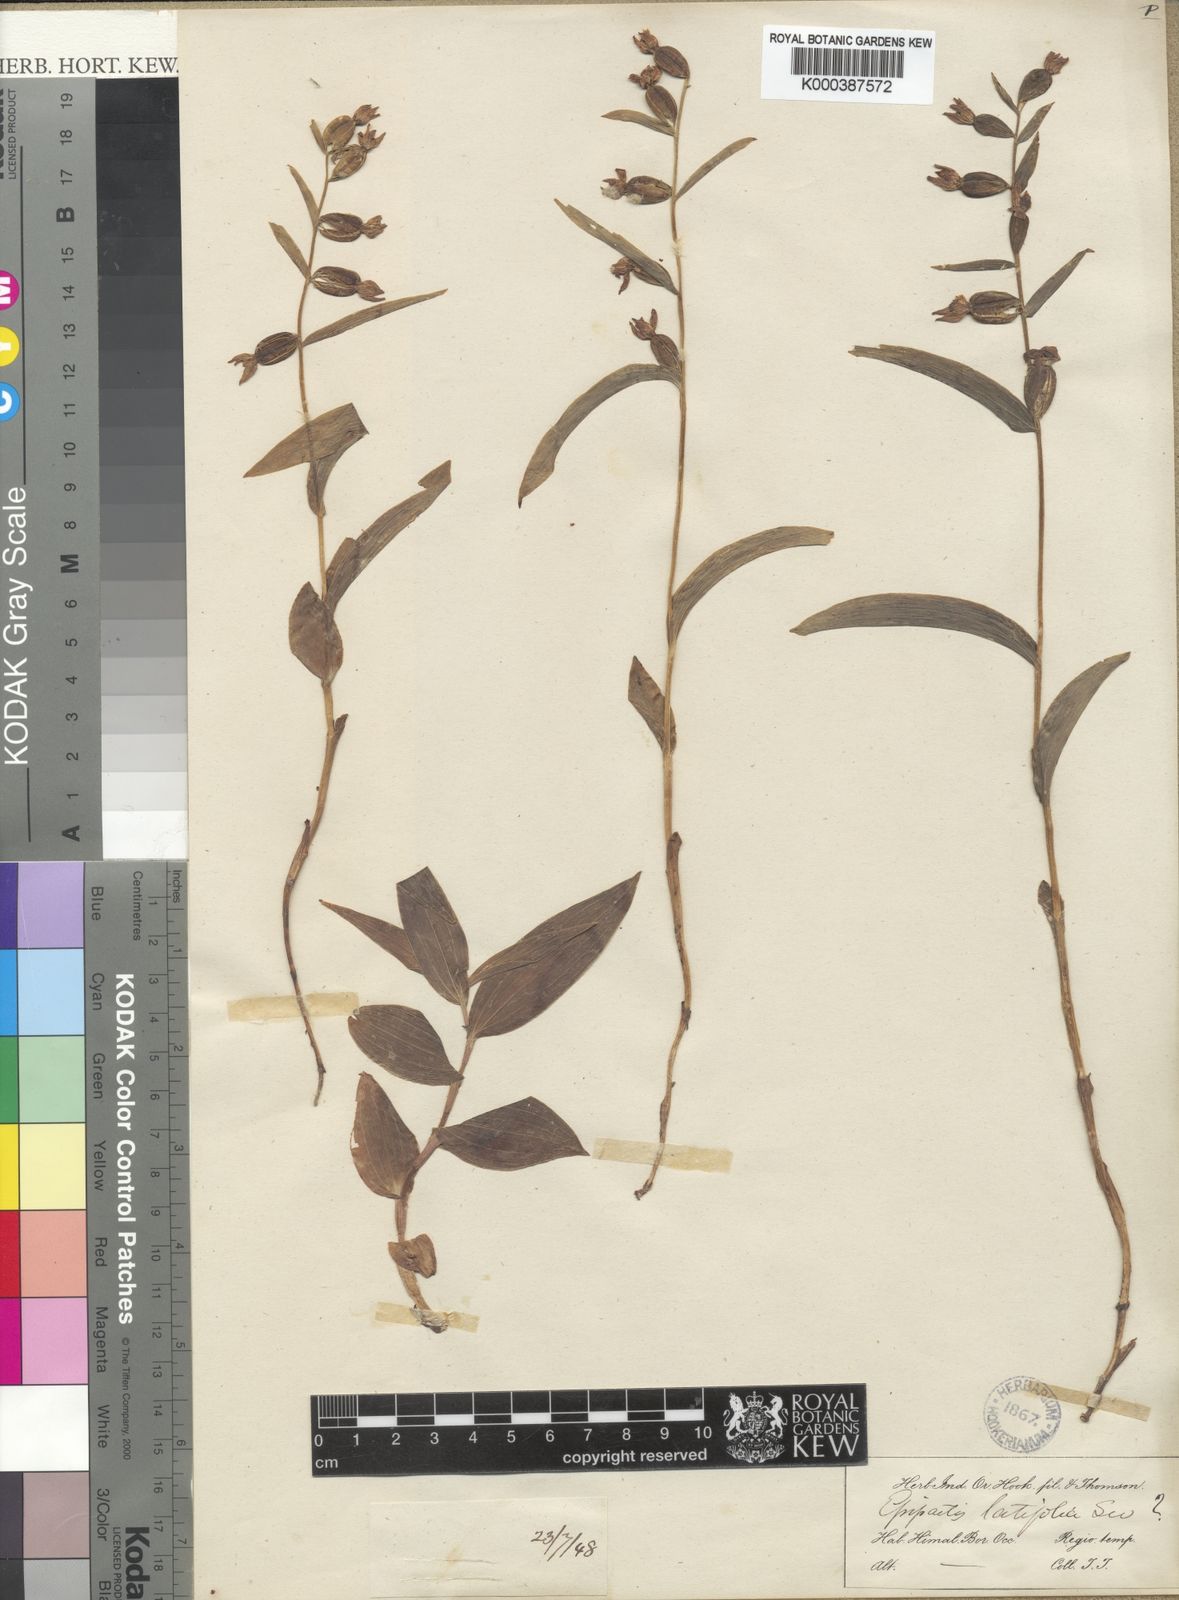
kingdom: Plantae
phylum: Tracheophyta
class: Liliopsida
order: Asparagales
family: Orchidaceae
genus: Epipactis
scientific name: Epipactis helleborine
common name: Broad-leaved helleborine
